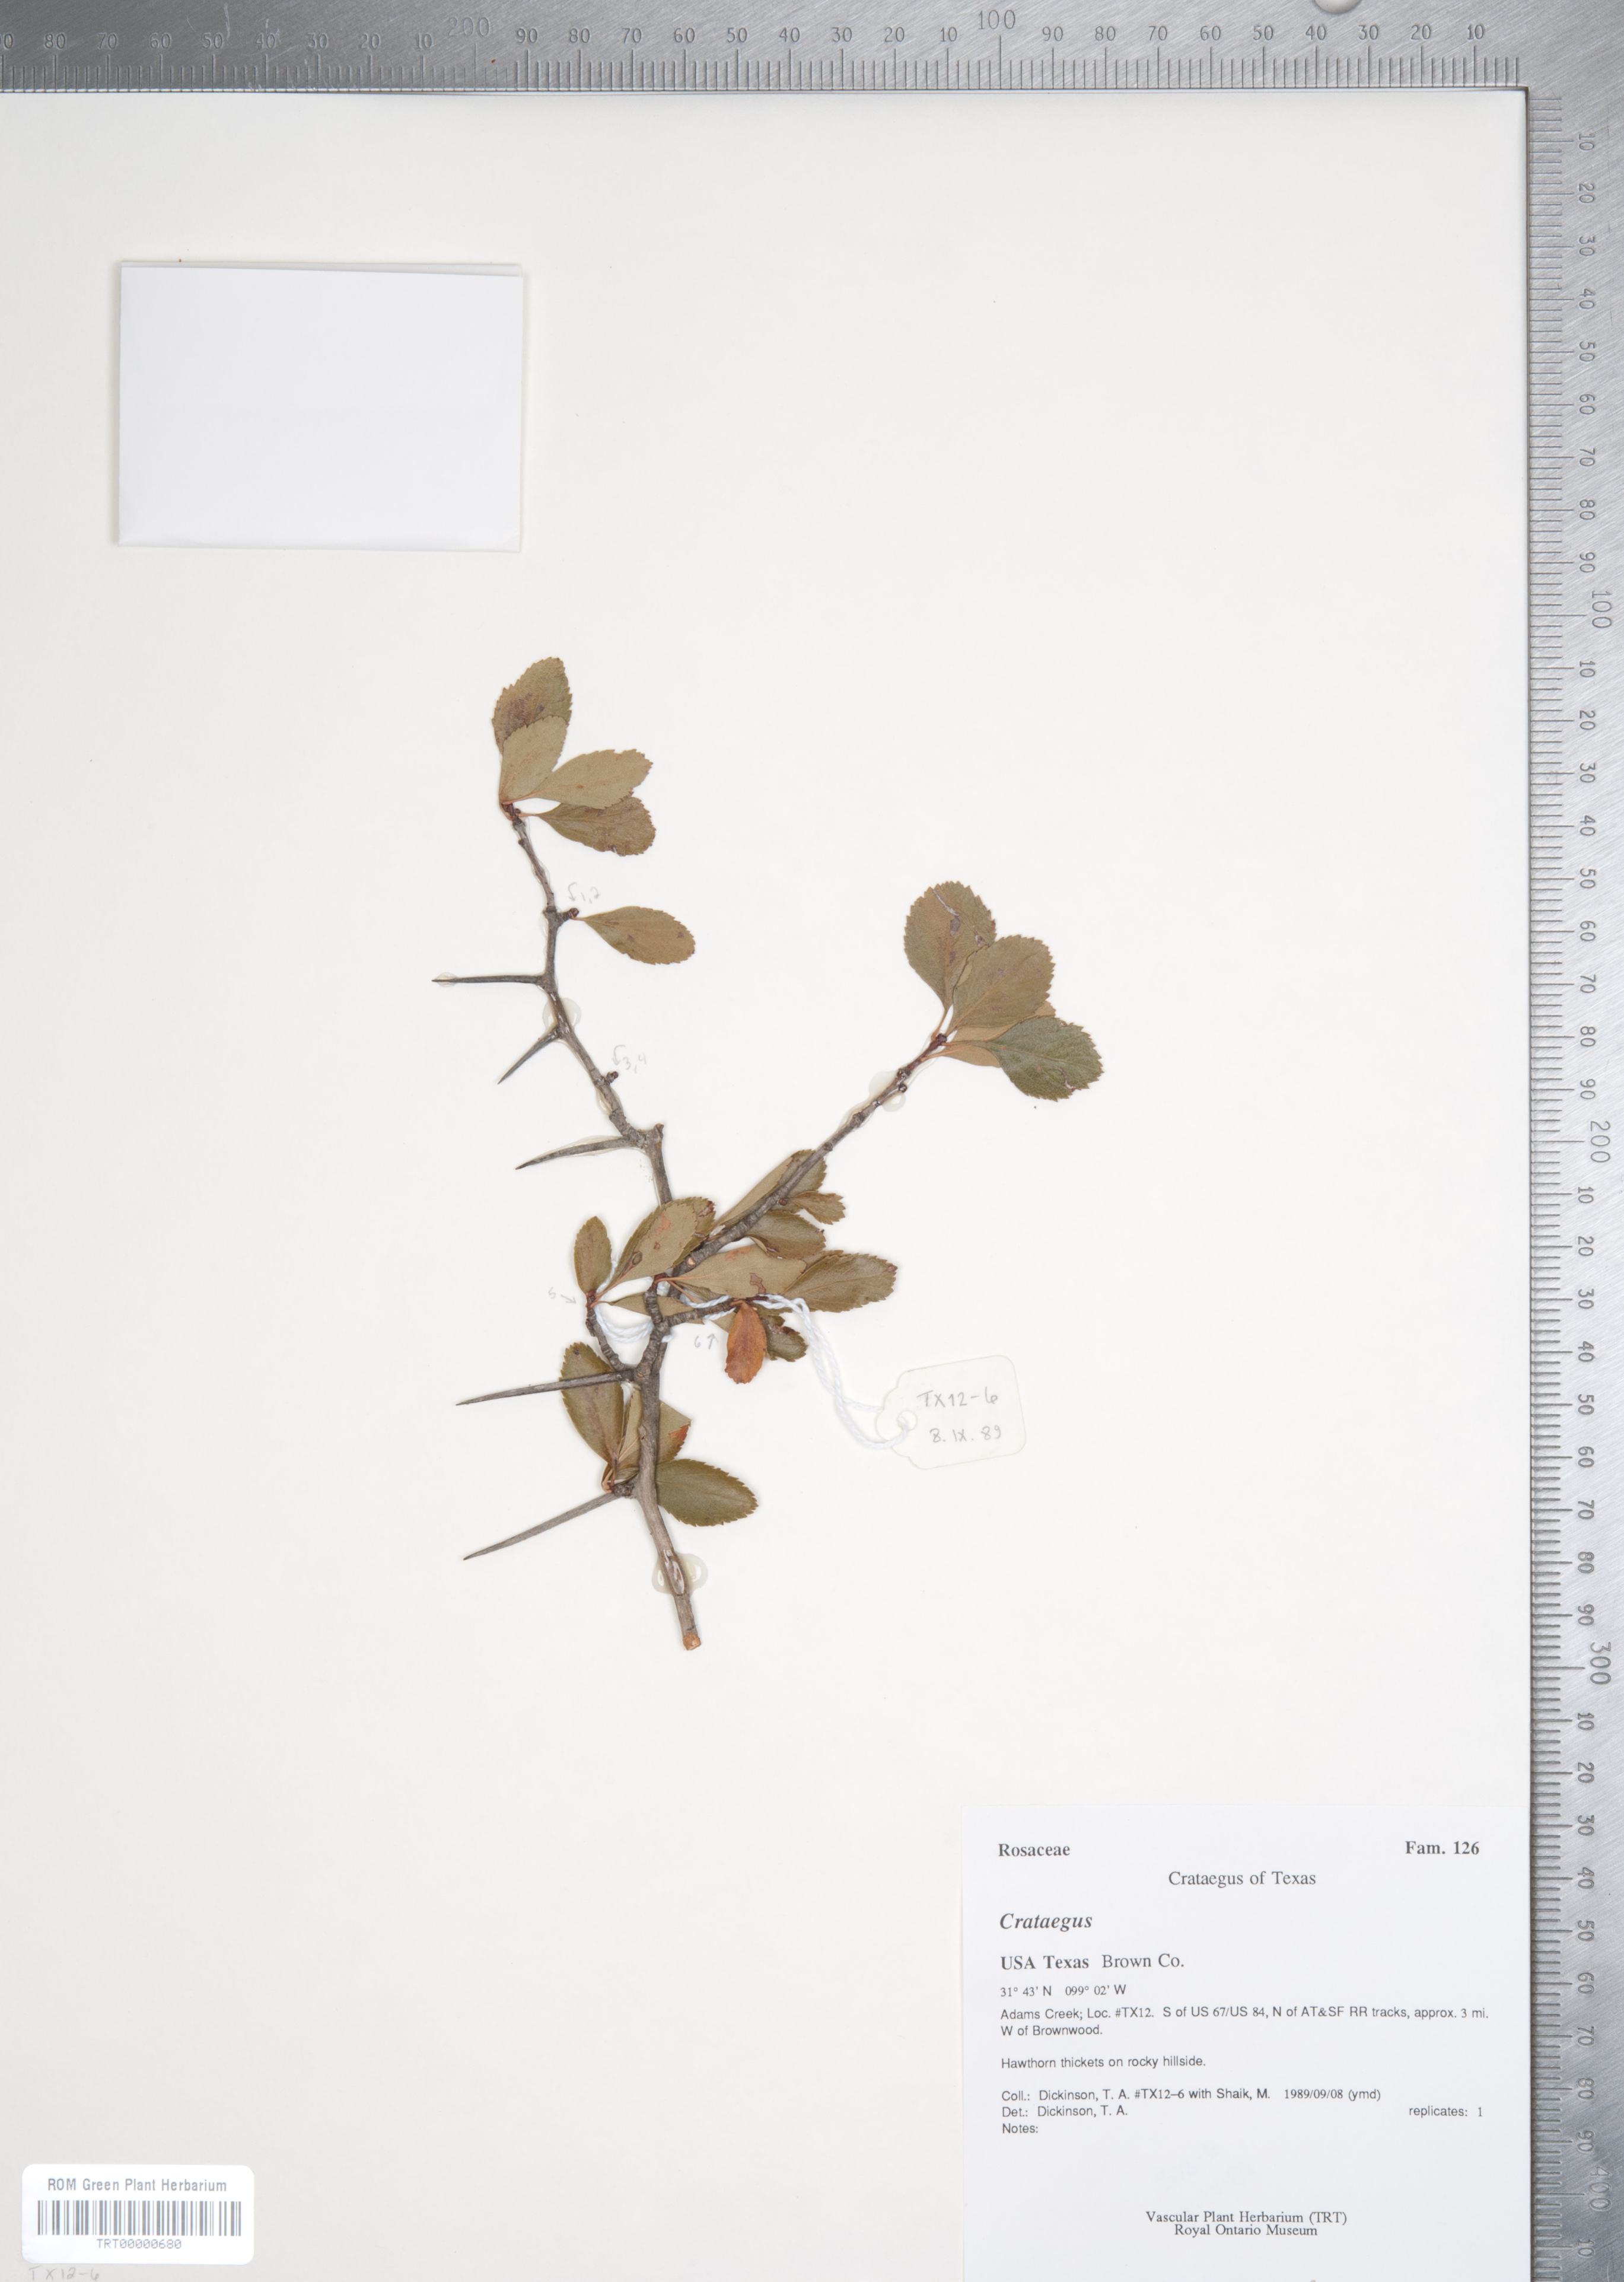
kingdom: Plantae
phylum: Tracheophyta
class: Magnoliopsida
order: Rosales
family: Rosaceae
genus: Crataegus
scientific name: Crataegus crus-galli
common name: Cockspurthorn
